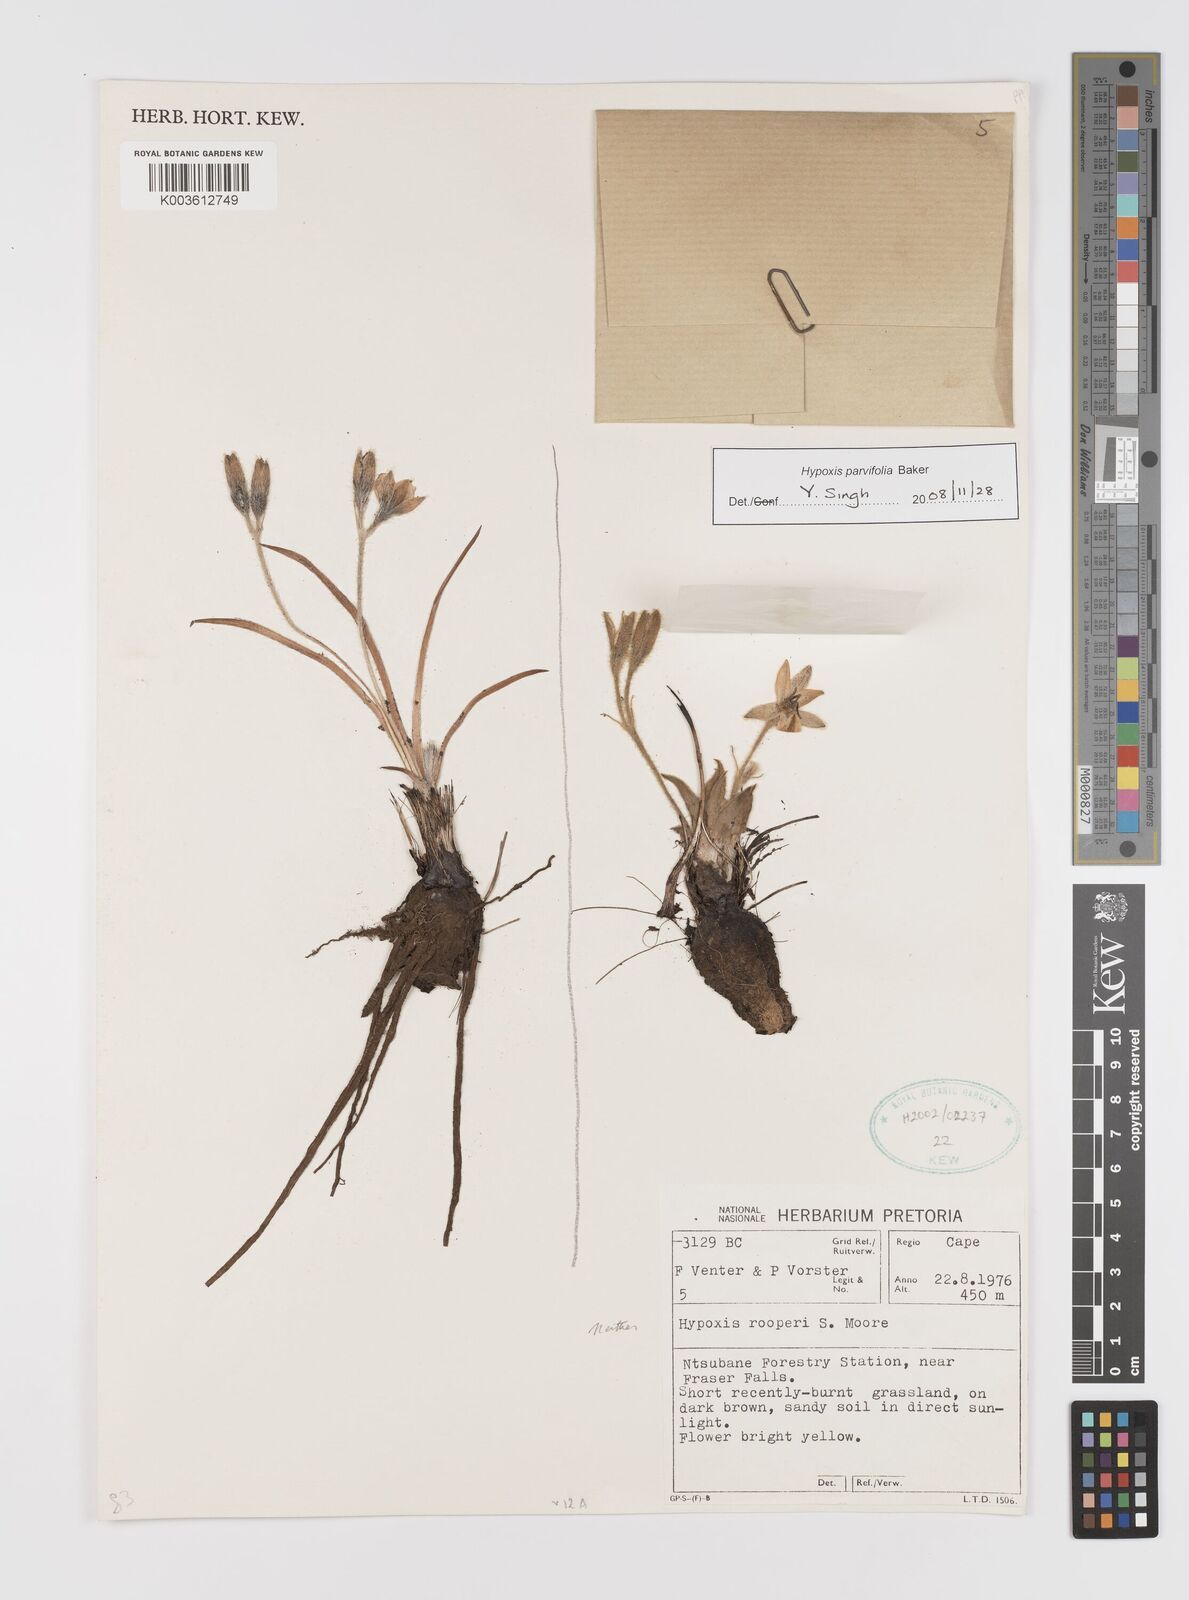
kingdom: Plantae
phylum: Tracheophyta
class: Liliopsida
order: Asparagales
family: Hypoxidaceae
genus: Hypoxis
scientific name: Hypoxis parvifolia
